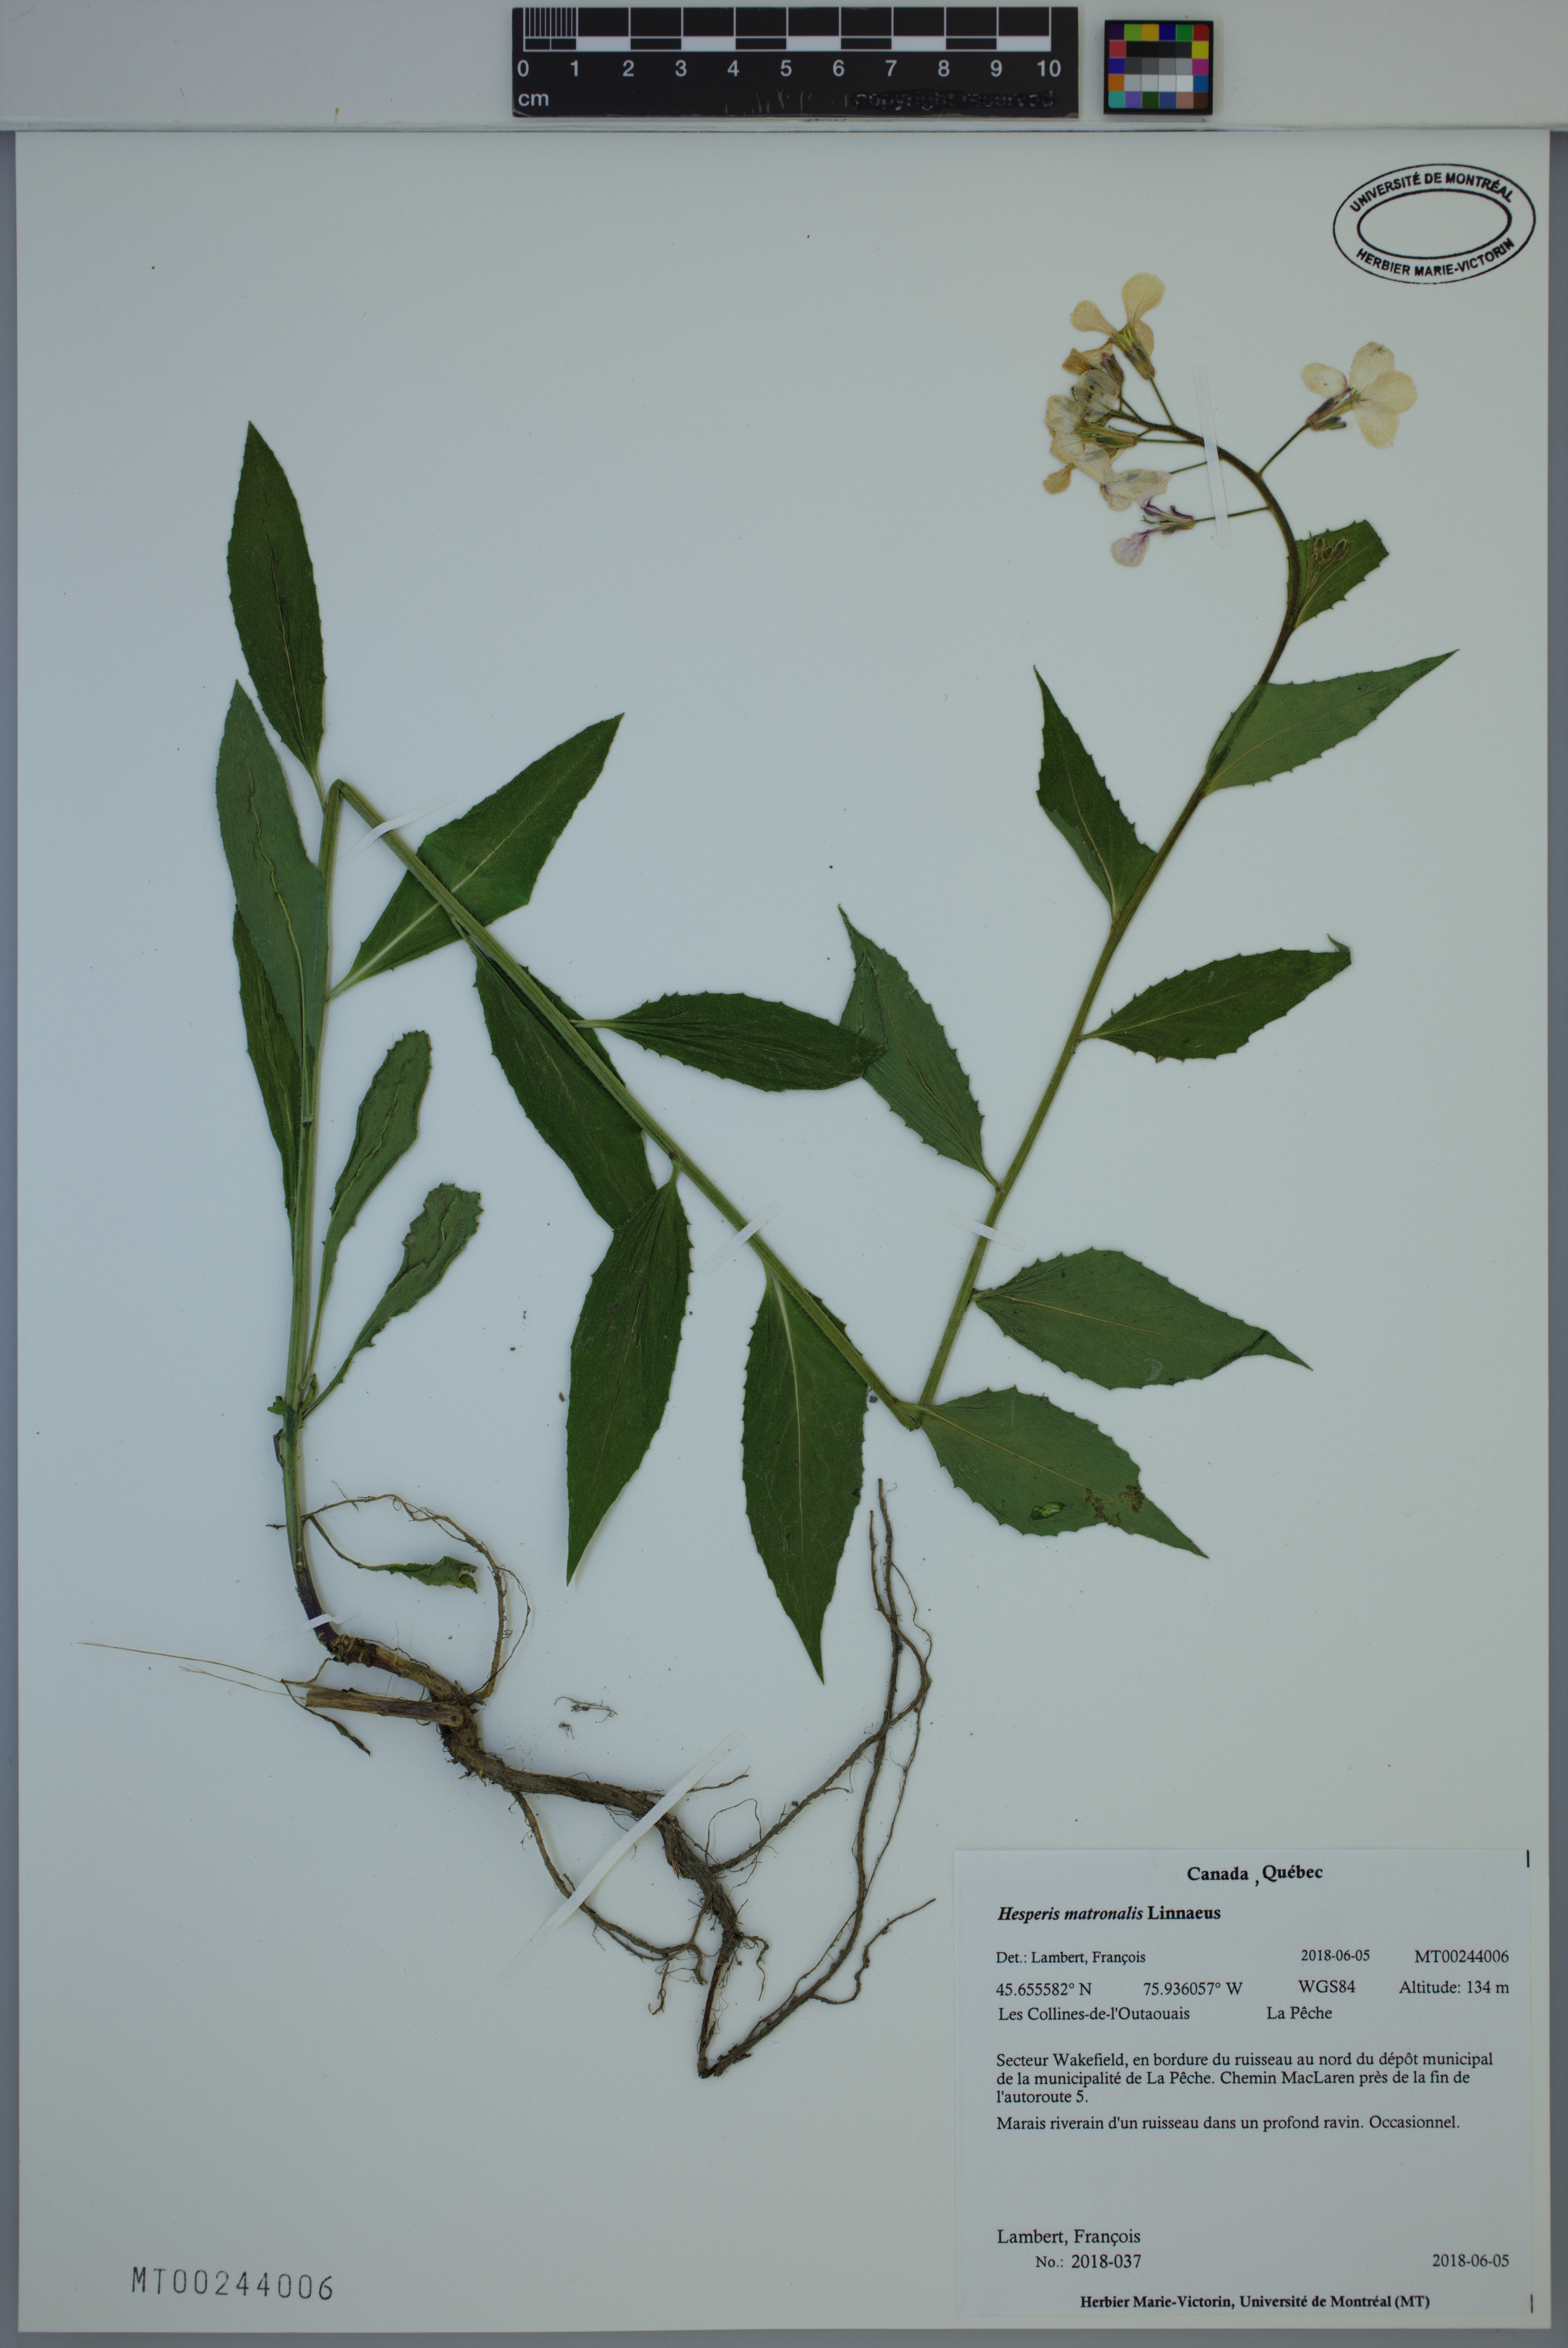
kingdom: Plantae
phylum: Tracheophyta
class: Magnoliopsida
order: Brassicales
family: Brassicaceae
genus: Hesperis
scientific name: Hesperis matronalis
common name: Dame's-violet
